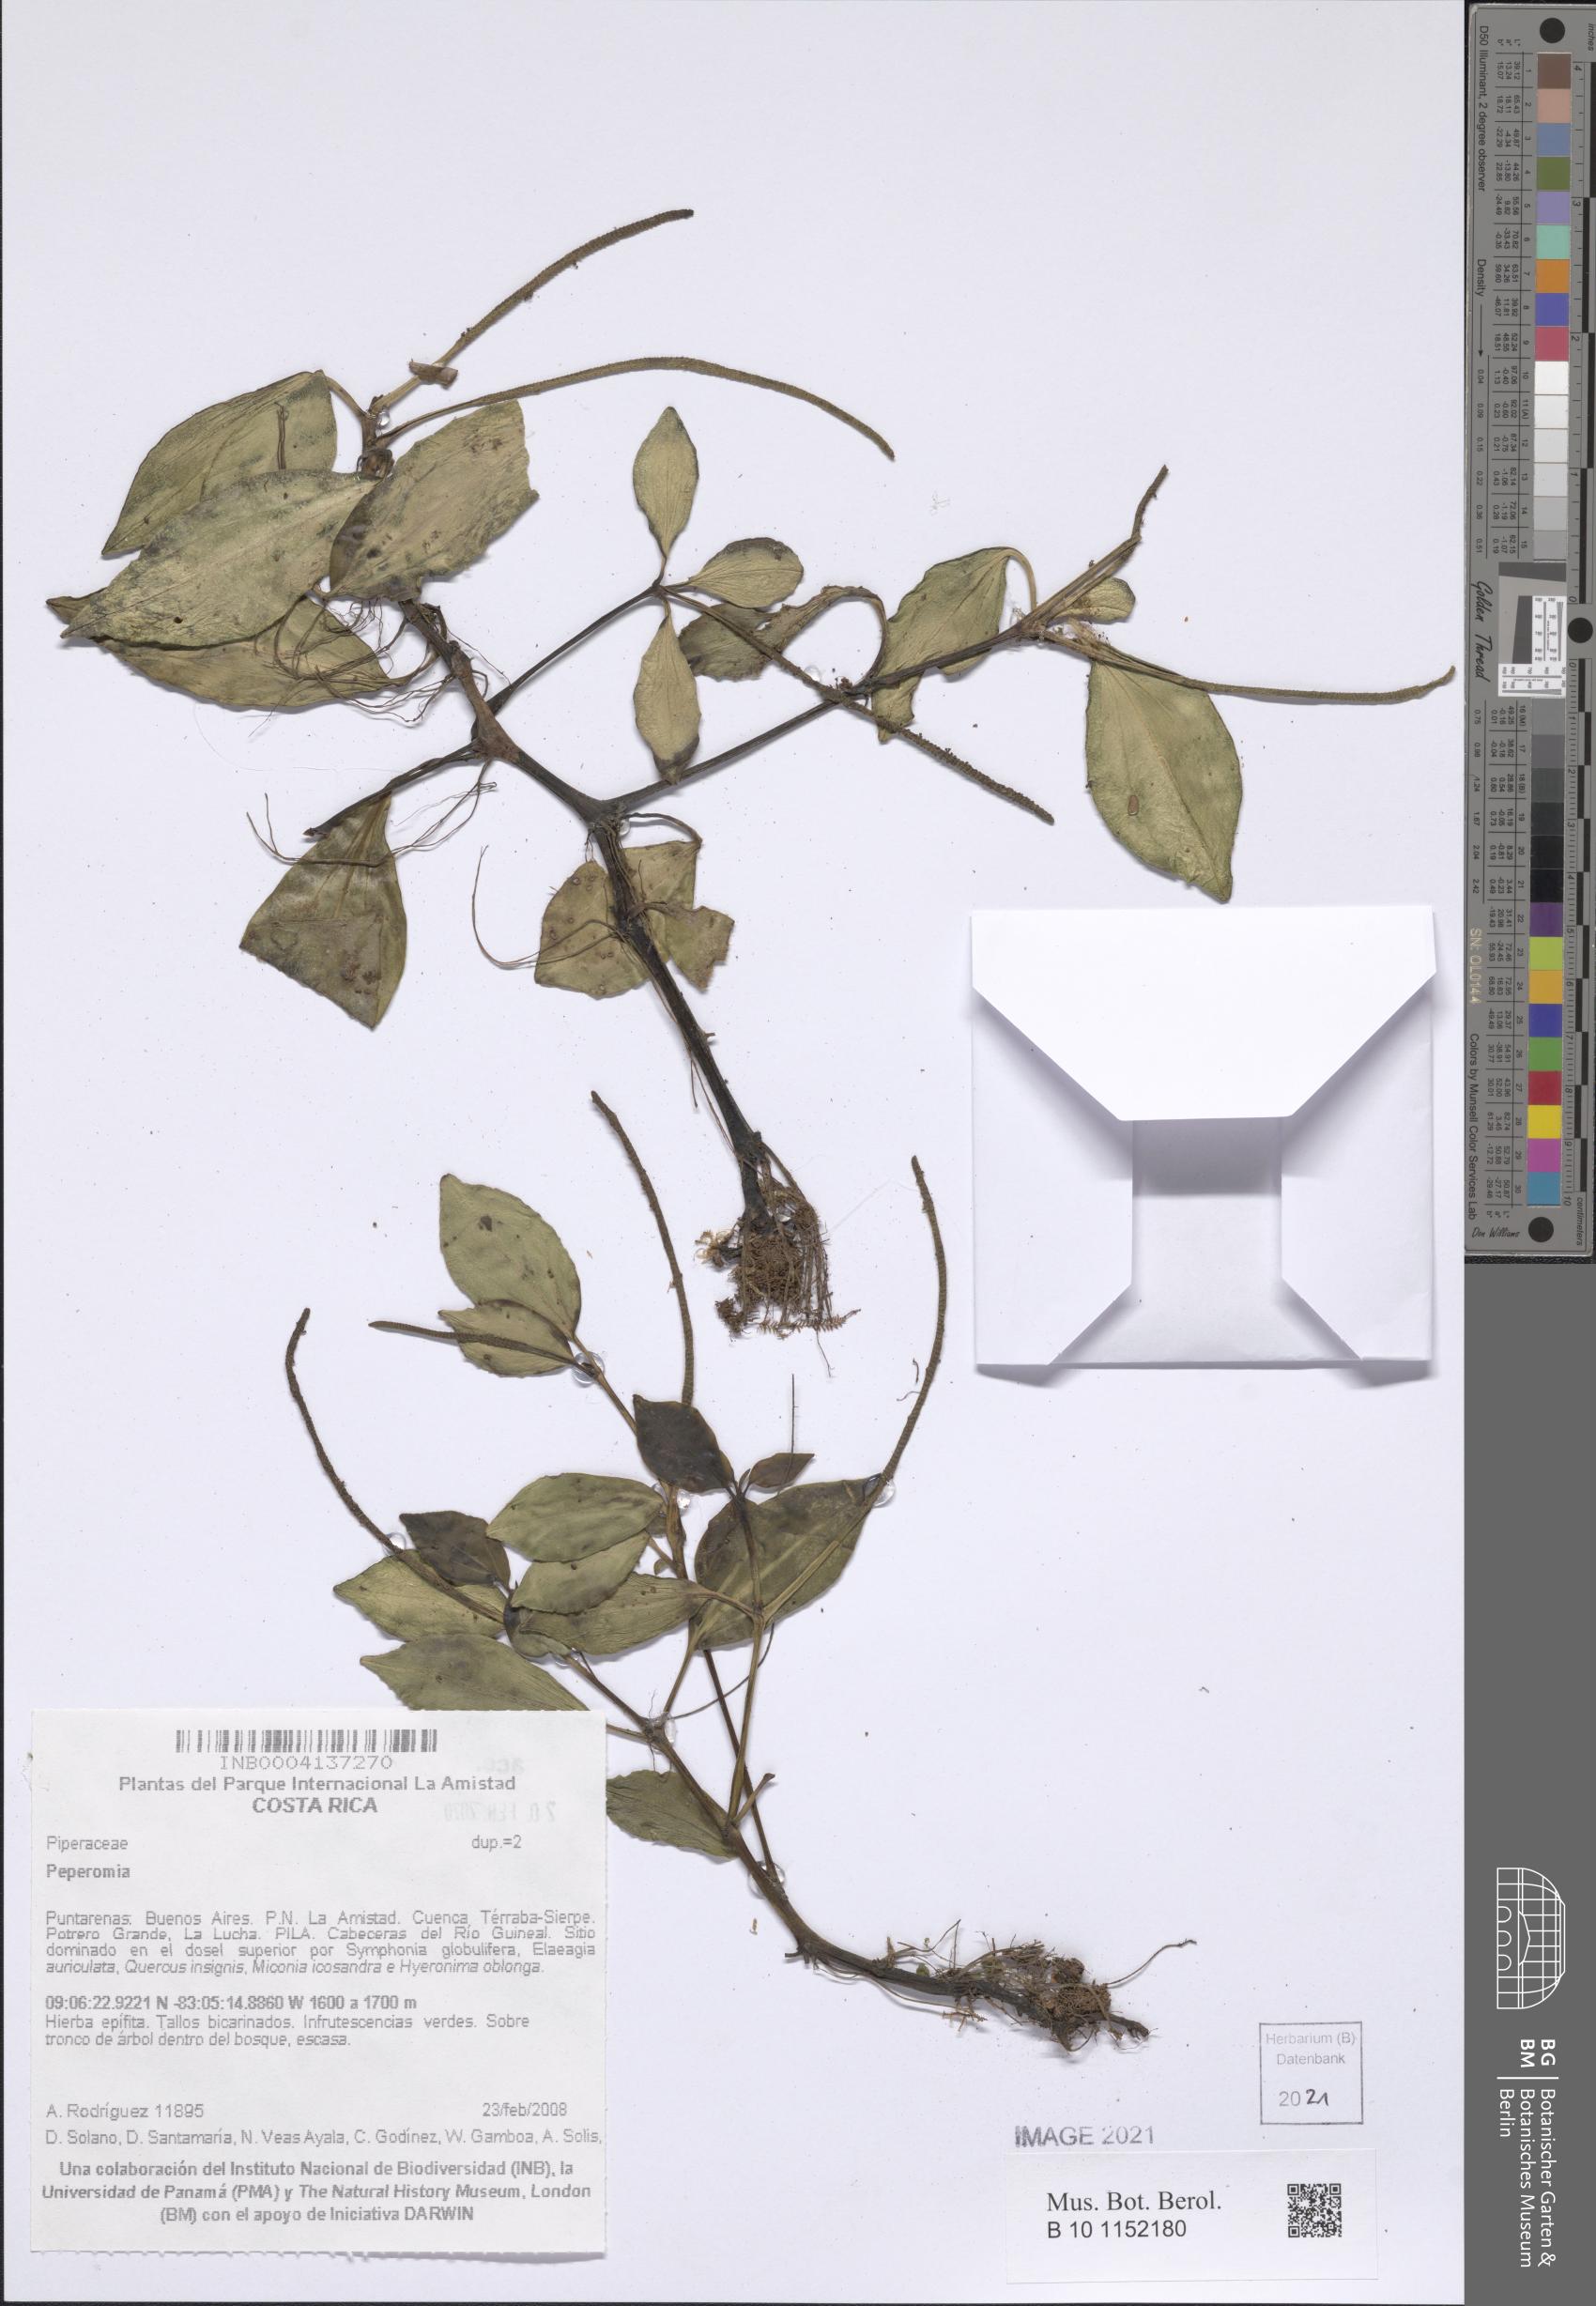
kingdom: Plantae
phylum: Tracheophyta
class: Magnoliopsida
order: Piperales
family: Piperaceae
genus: Peperomia
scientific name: Peperomia san-joseana
